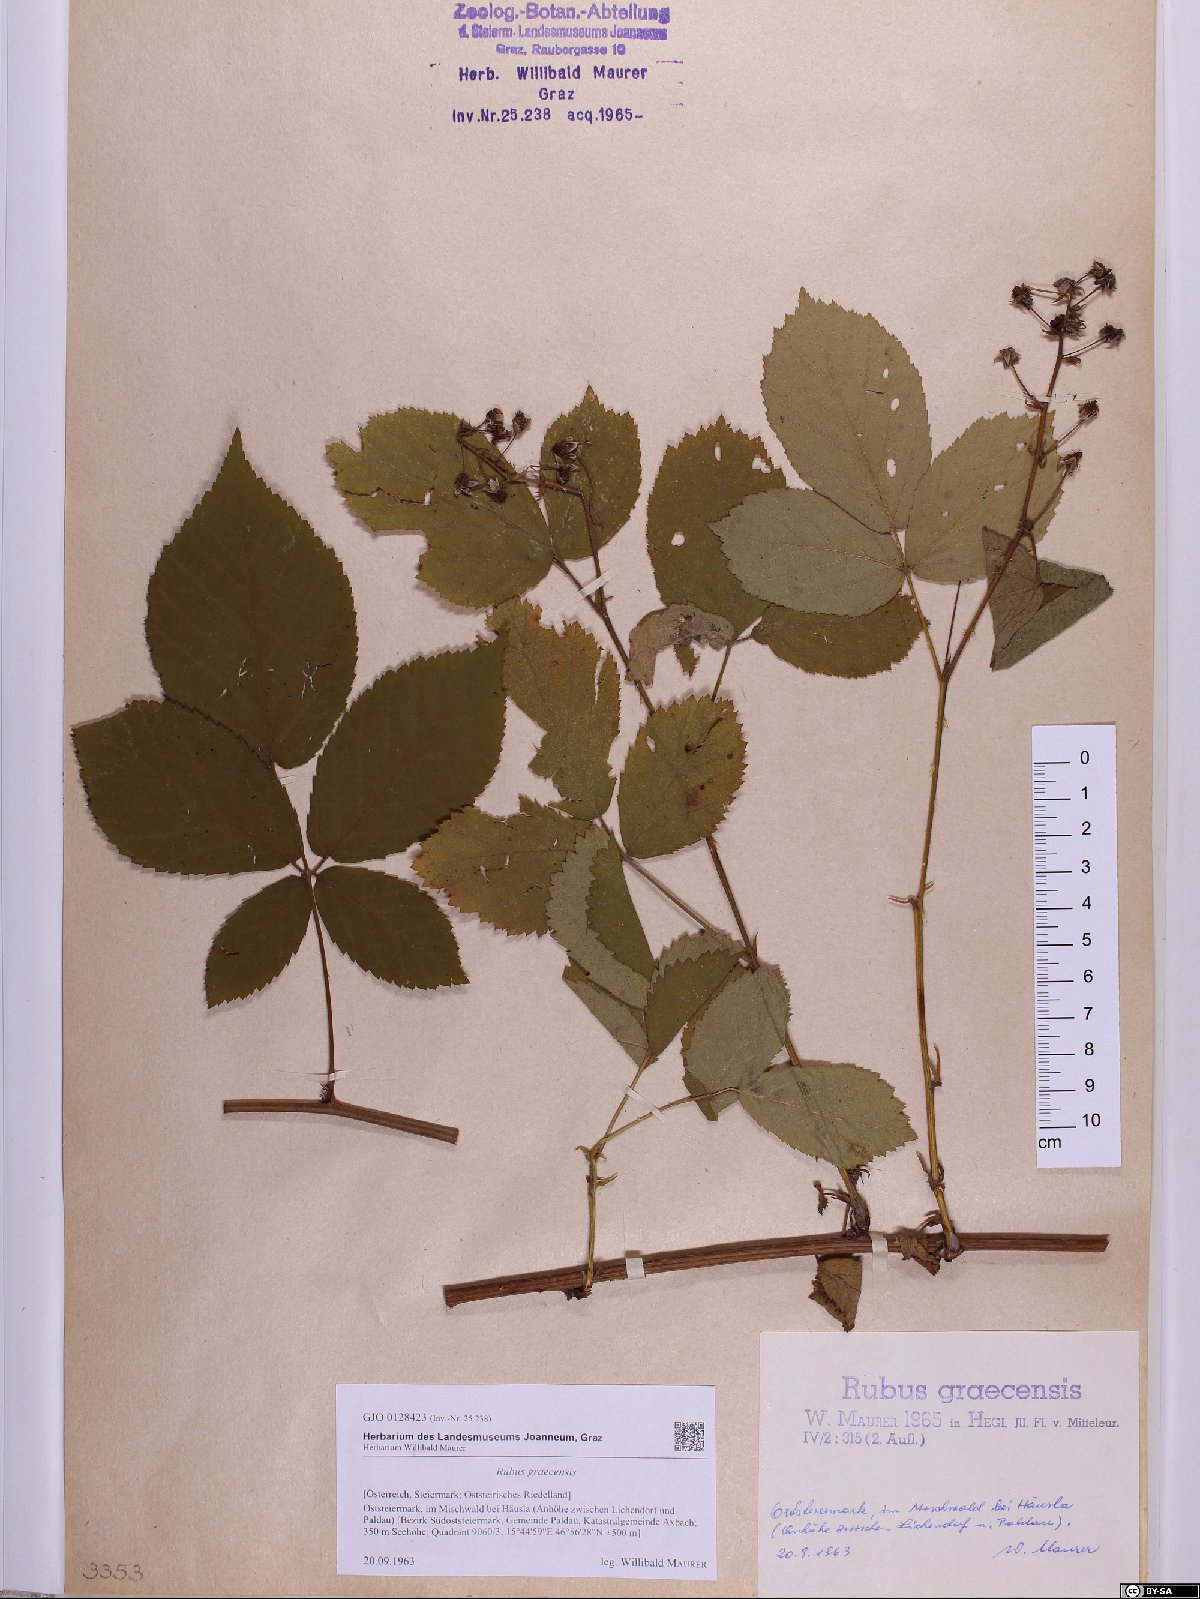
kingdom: Plantae
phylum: Tracheophyta
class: Magnoliopsida
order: Rosales
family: Rosaceae
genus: Rubus
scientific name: Rubus graecensis
